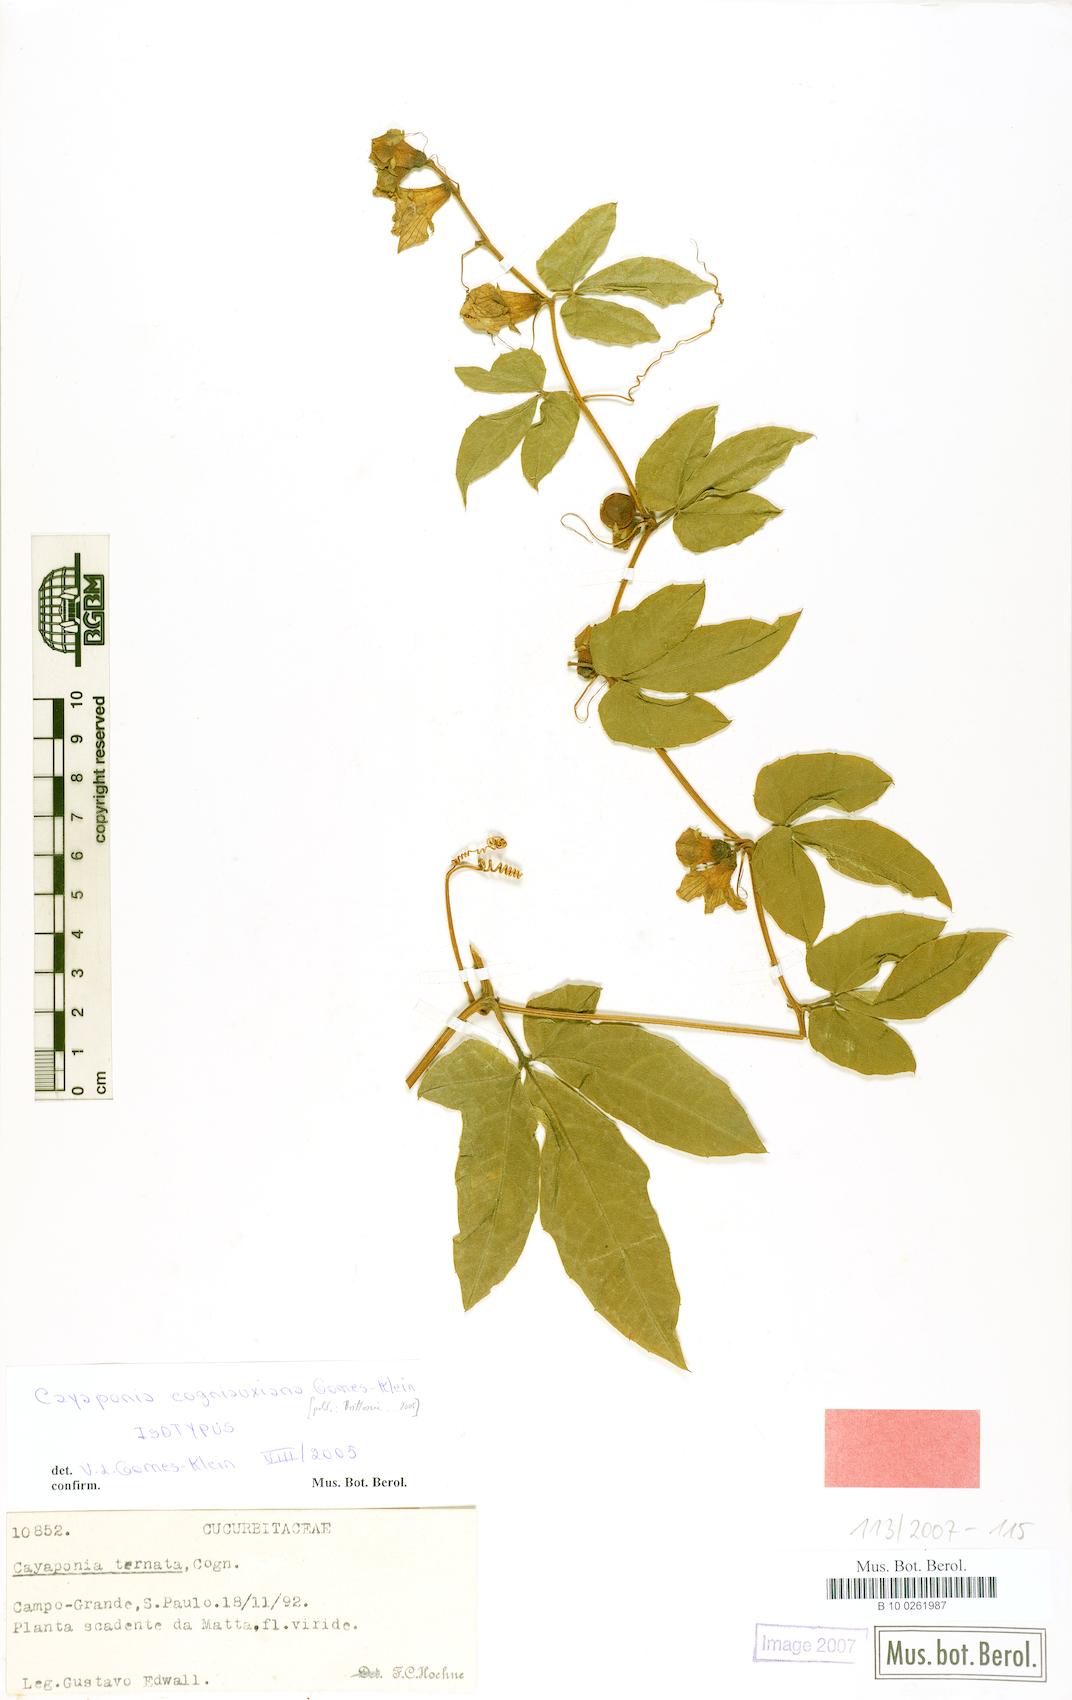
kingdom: Plantae
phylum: Tracheophyta
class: Magnoliopsida
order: Cucurbitales
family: Cucurbitaceae
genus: Cayaponia
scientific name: Cayaponia cogniauxiana
